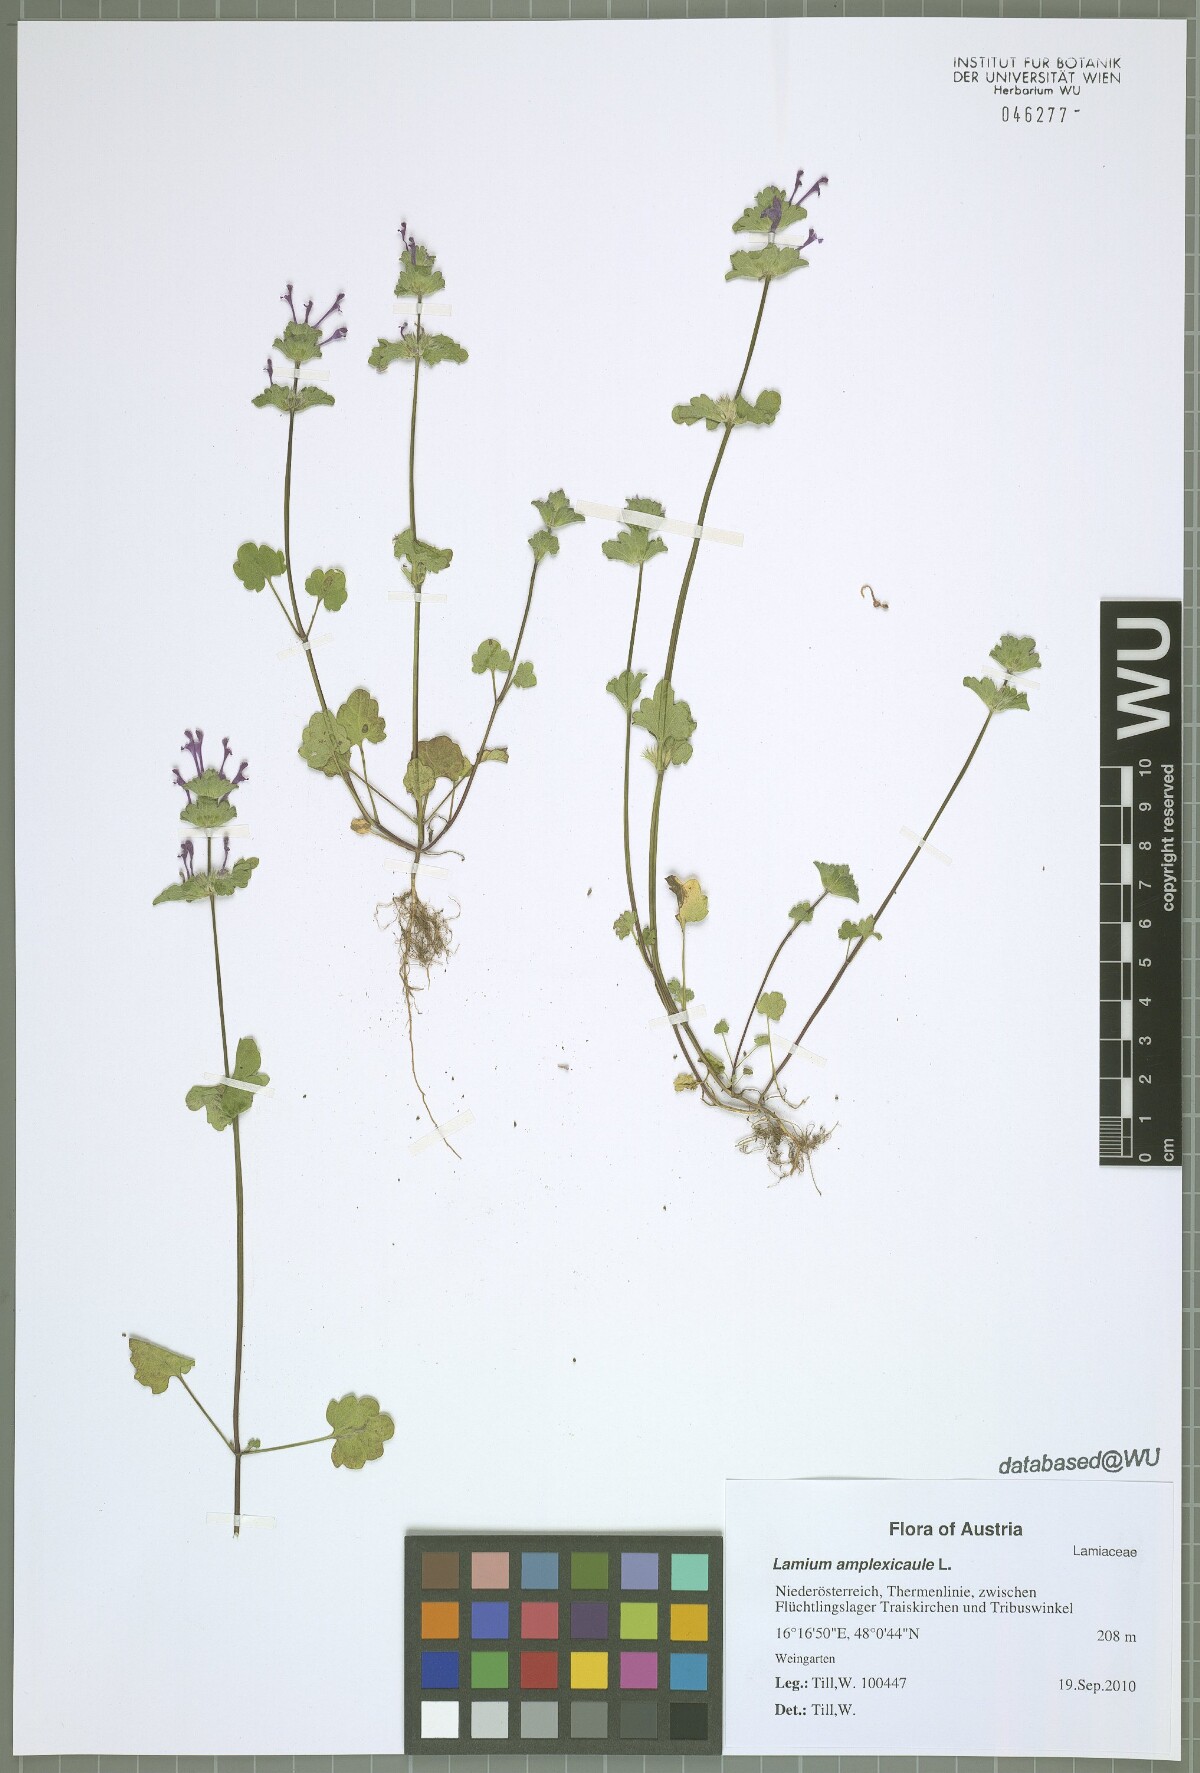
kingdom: Plantae
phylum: Tracheophyta
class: Magnoliopsida
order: Lamiales
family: Lamiaceae
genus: Lamium
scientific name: Lamium amplexicaule
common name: Henbit dead-nettle
